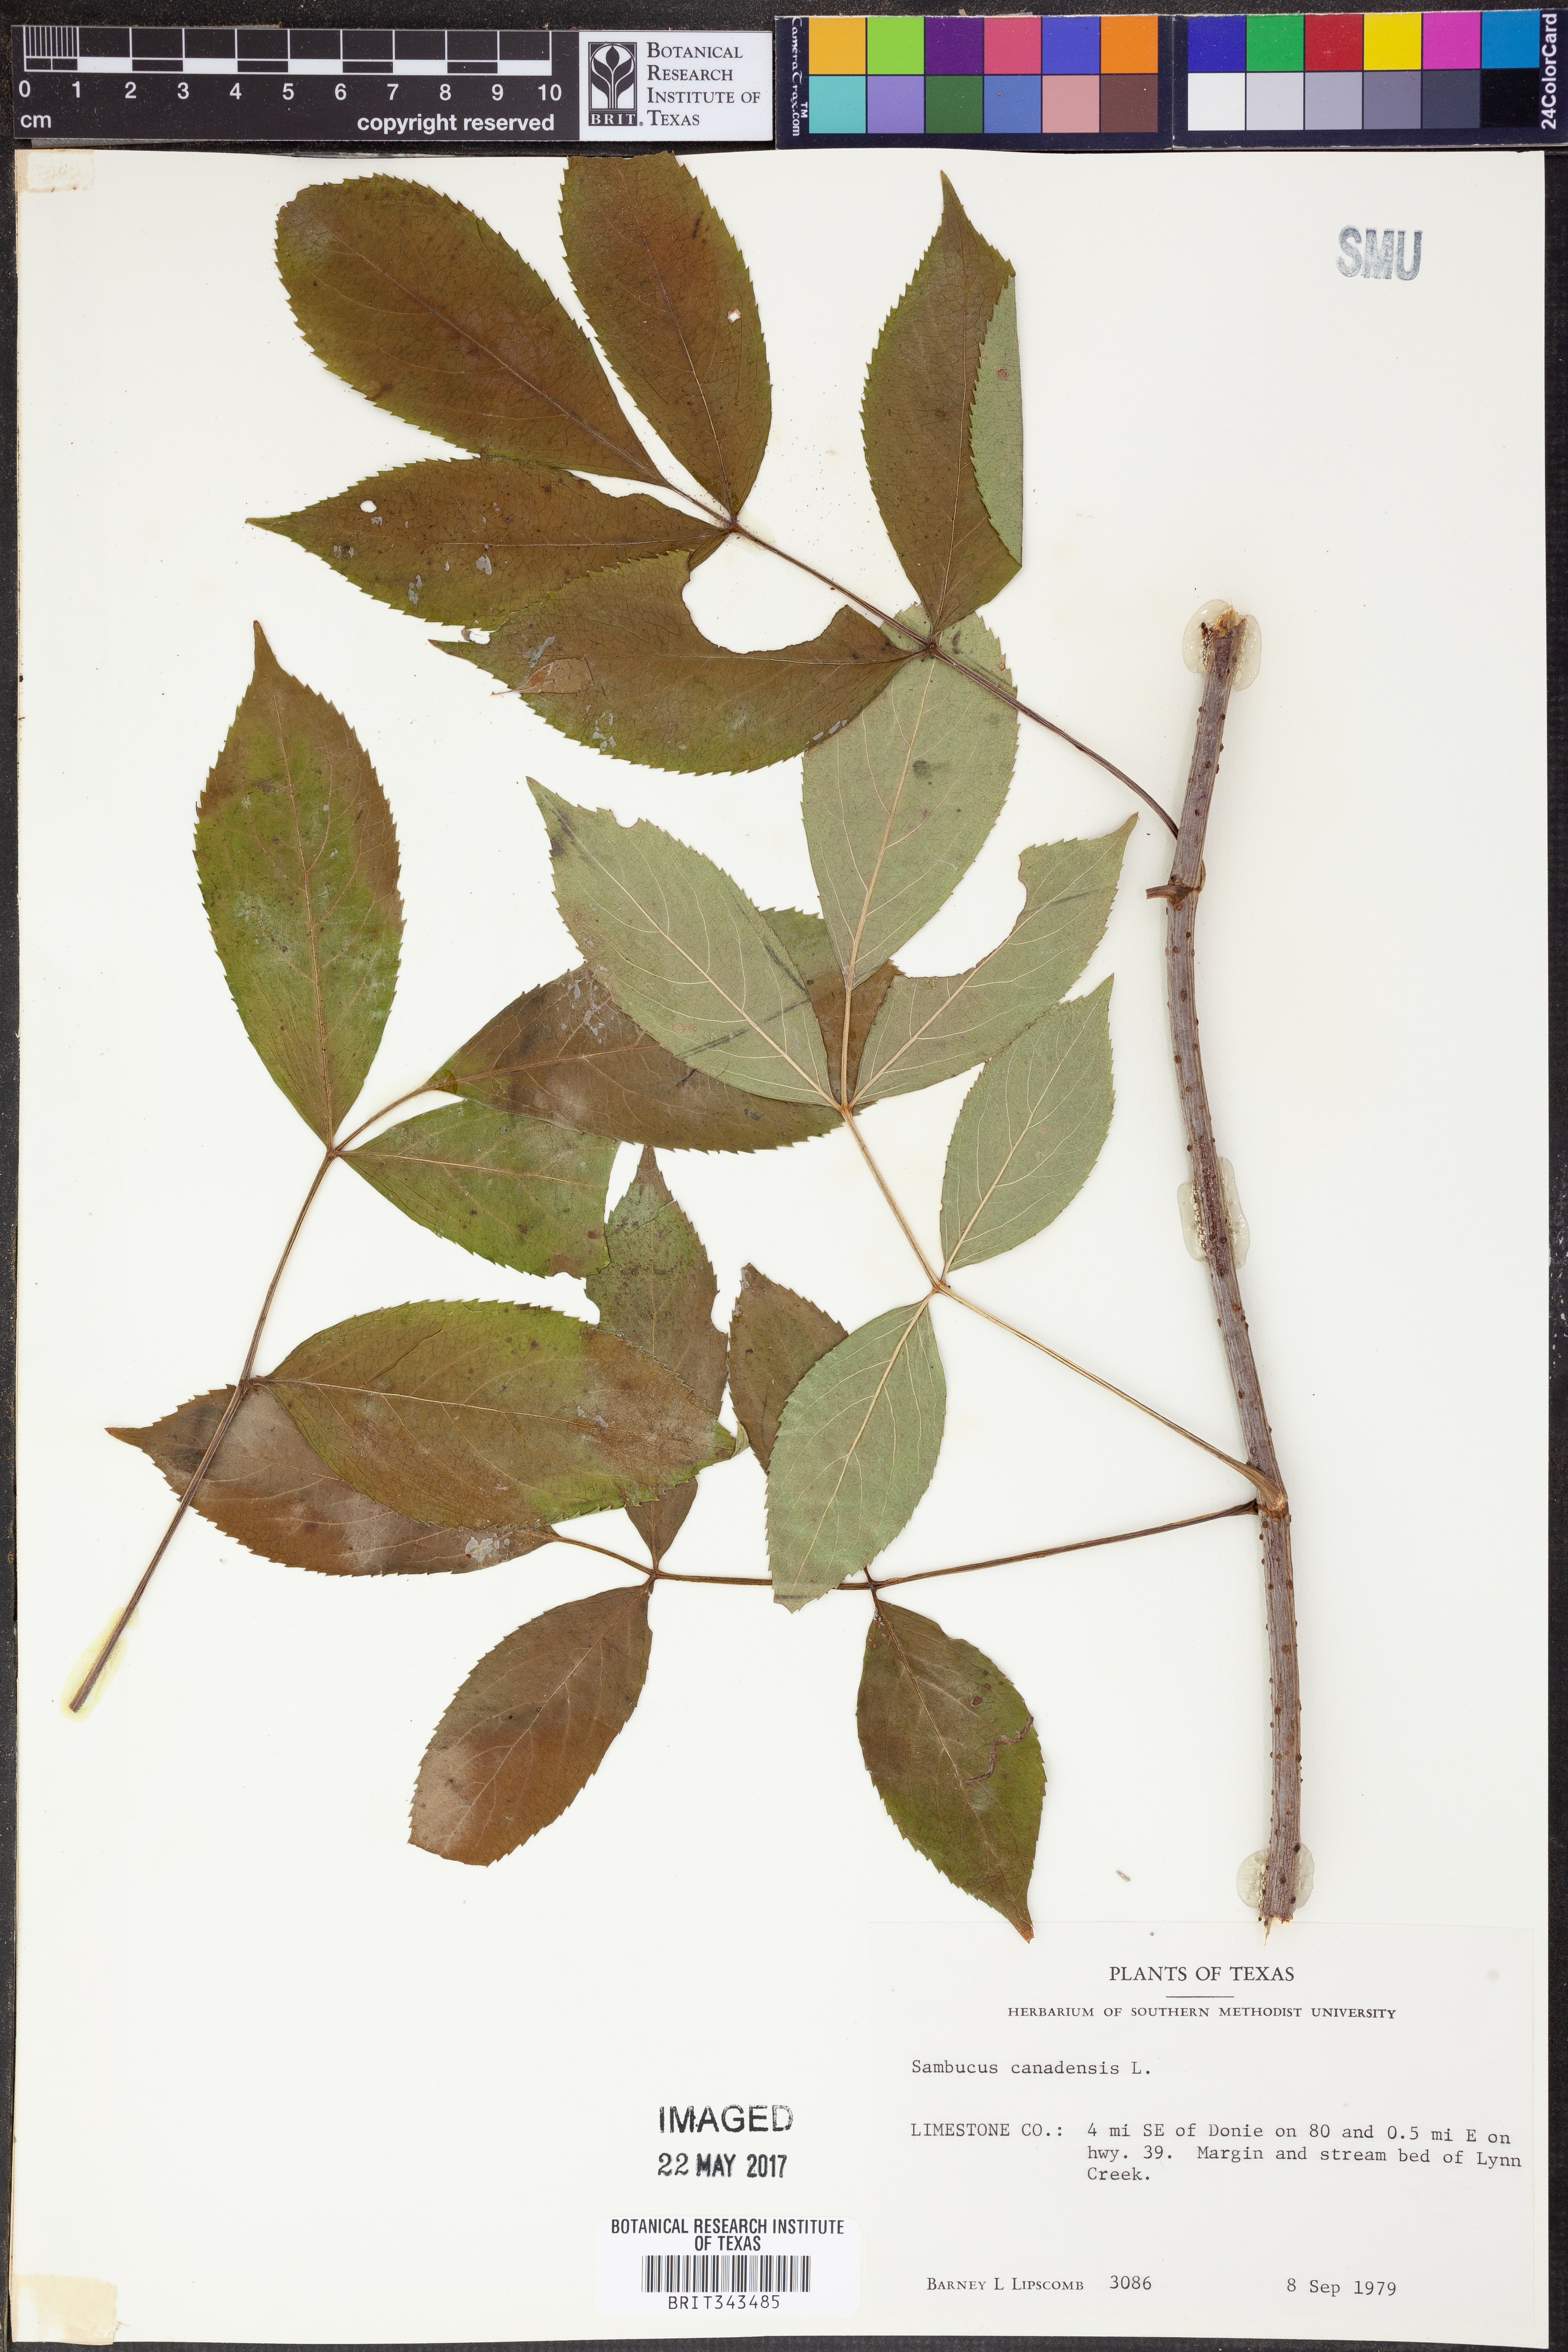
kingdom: Plantae
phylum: Tracheophyta
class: Magnoliopsida
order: Dipsacales
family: Viburnaceae
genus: Sambucus
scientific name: Sambucus canadensis
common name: American elder
